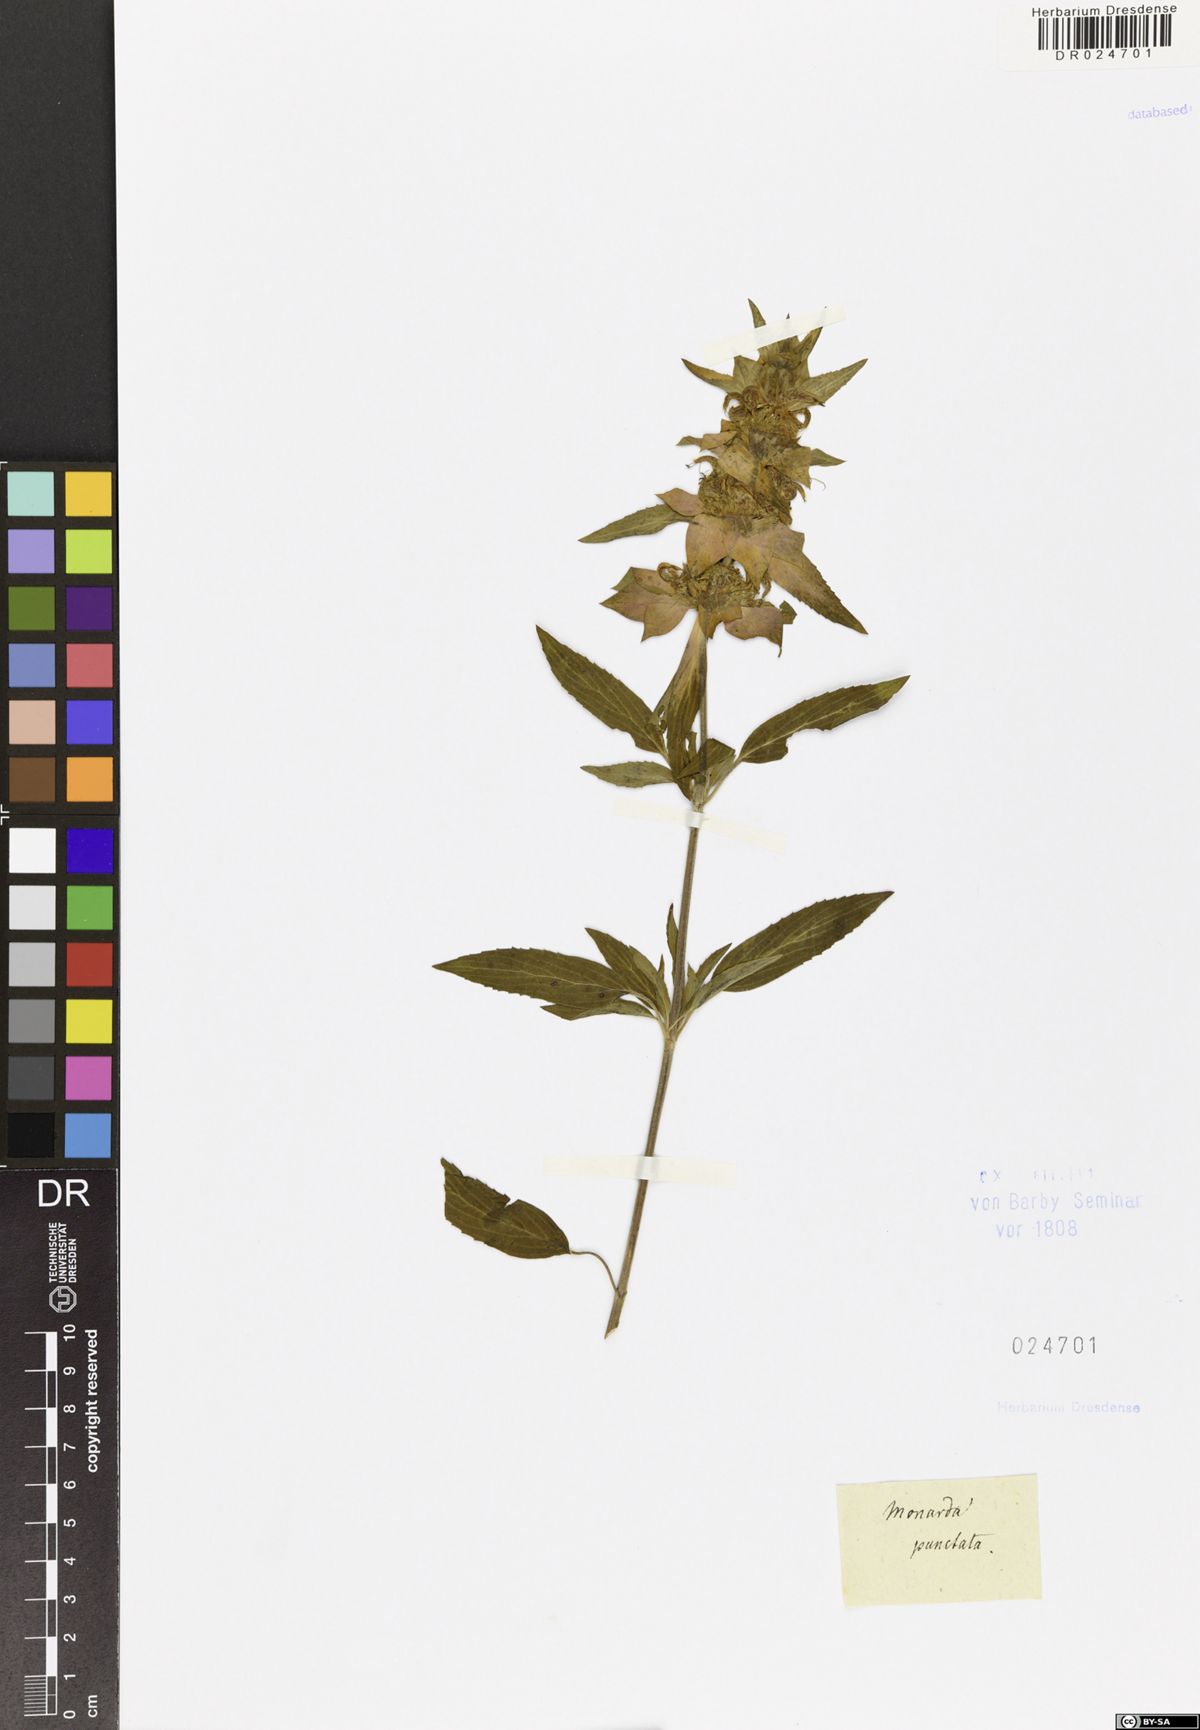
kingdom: Plantae
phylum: Tracheophyta
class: Magnoliopsida
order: Lamiales
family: Lamiaceae
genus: Monarda
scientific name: Monarda punctata
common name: Dotted monarda
